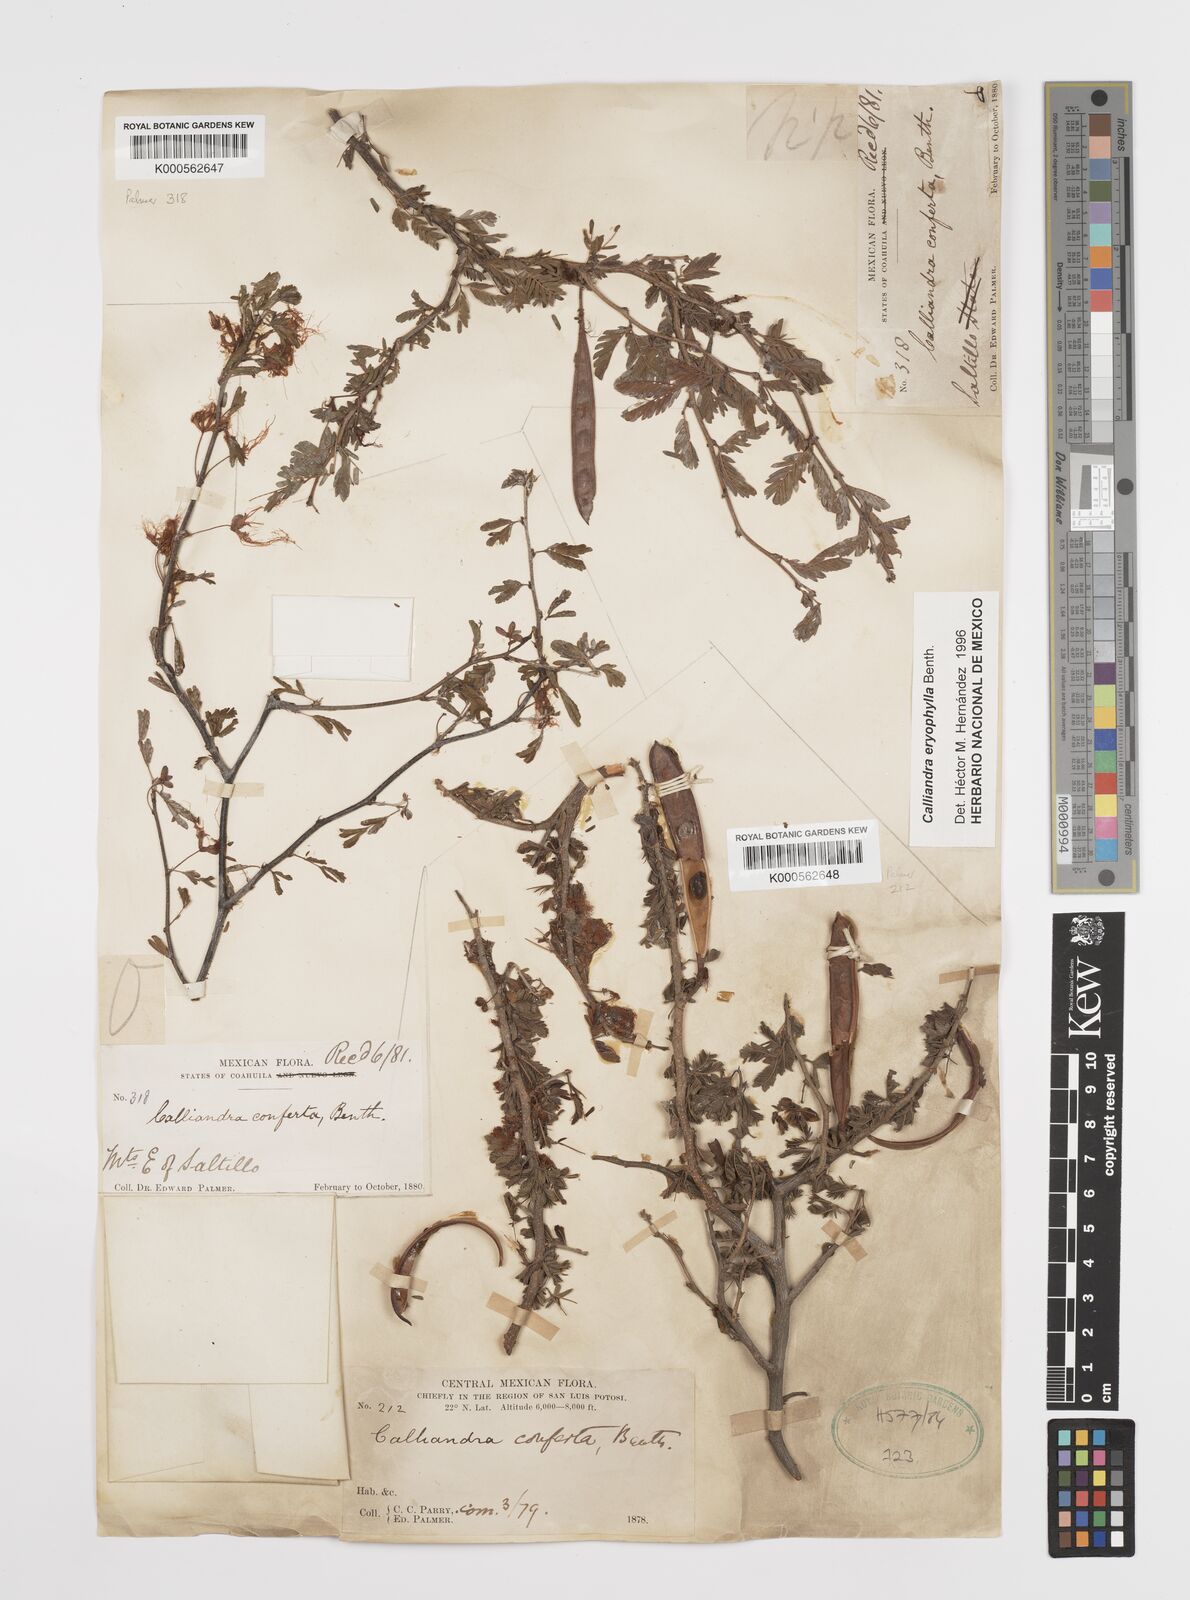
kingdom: Plantae
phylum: Tracheophyta
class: Magnoliopsida
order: Fabales
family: Fabaceae
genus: Calliandra
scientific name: Calliandra eriophylla
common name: Fairy-duster
